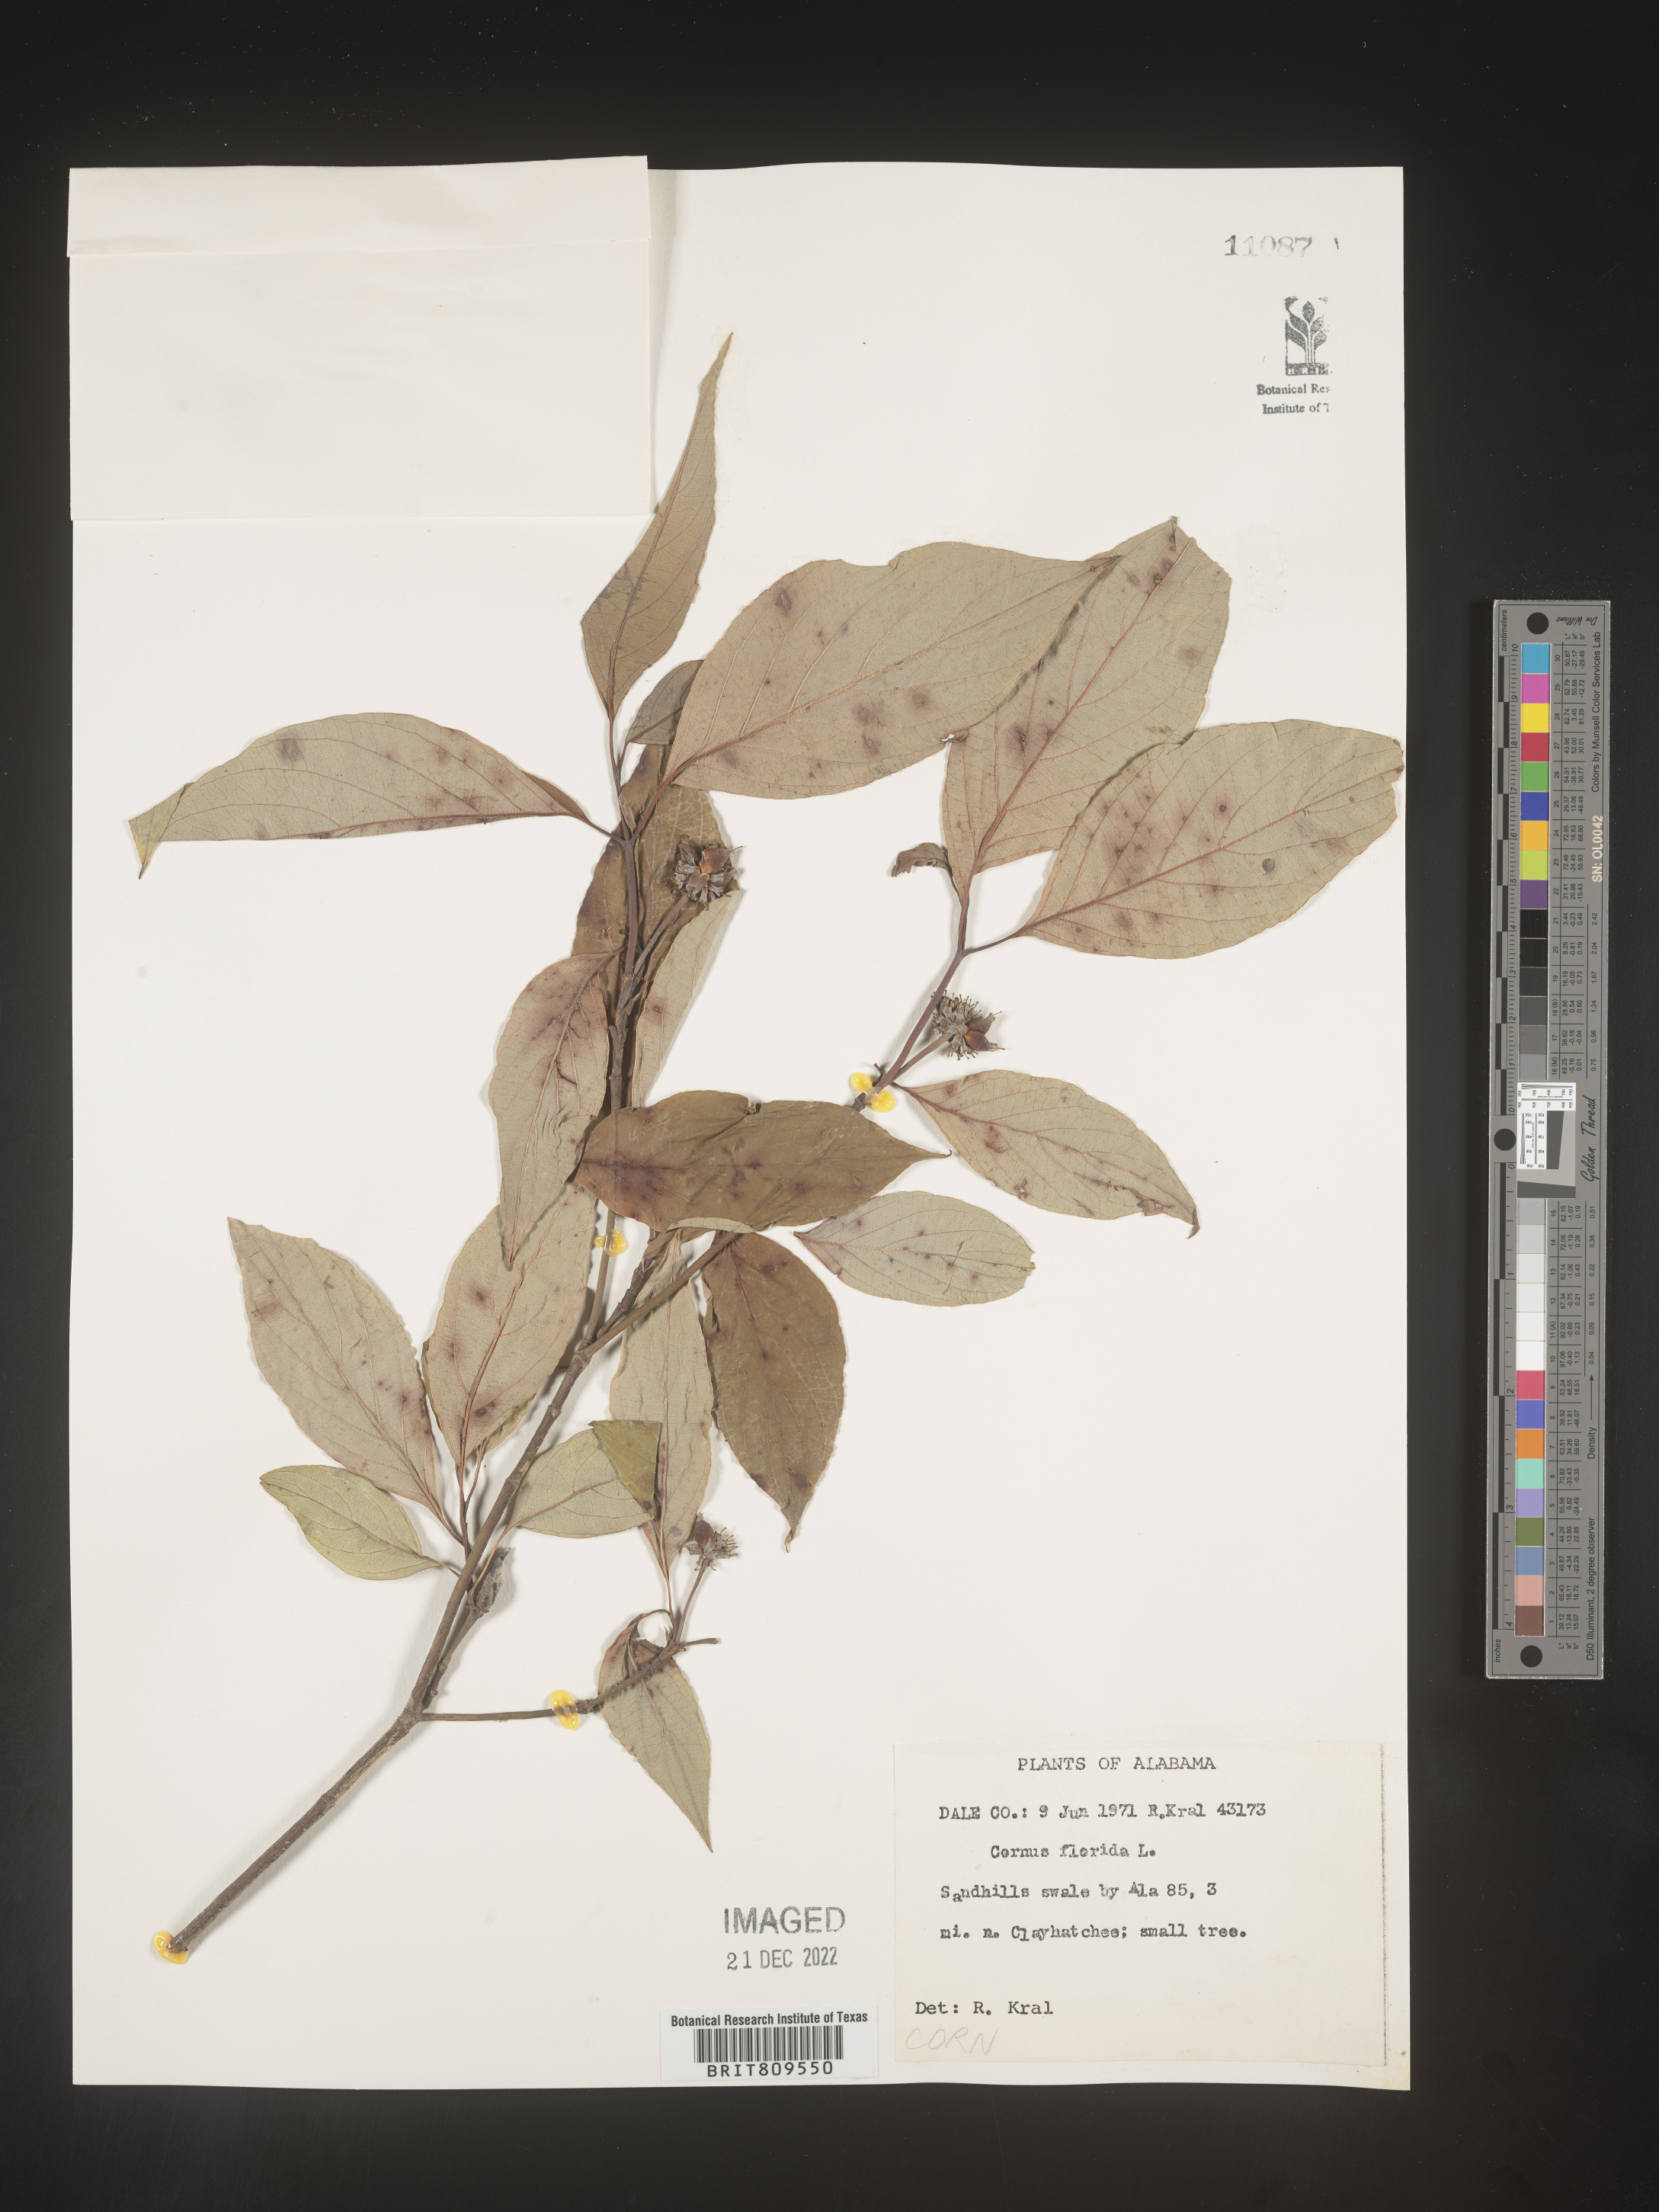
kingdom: Plantae
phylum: Tracheophyta
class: Magnoliopsida
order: Cornales
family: Cornaceae
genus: Cornus
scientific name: Cornus florida
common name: Flowering dogwood
